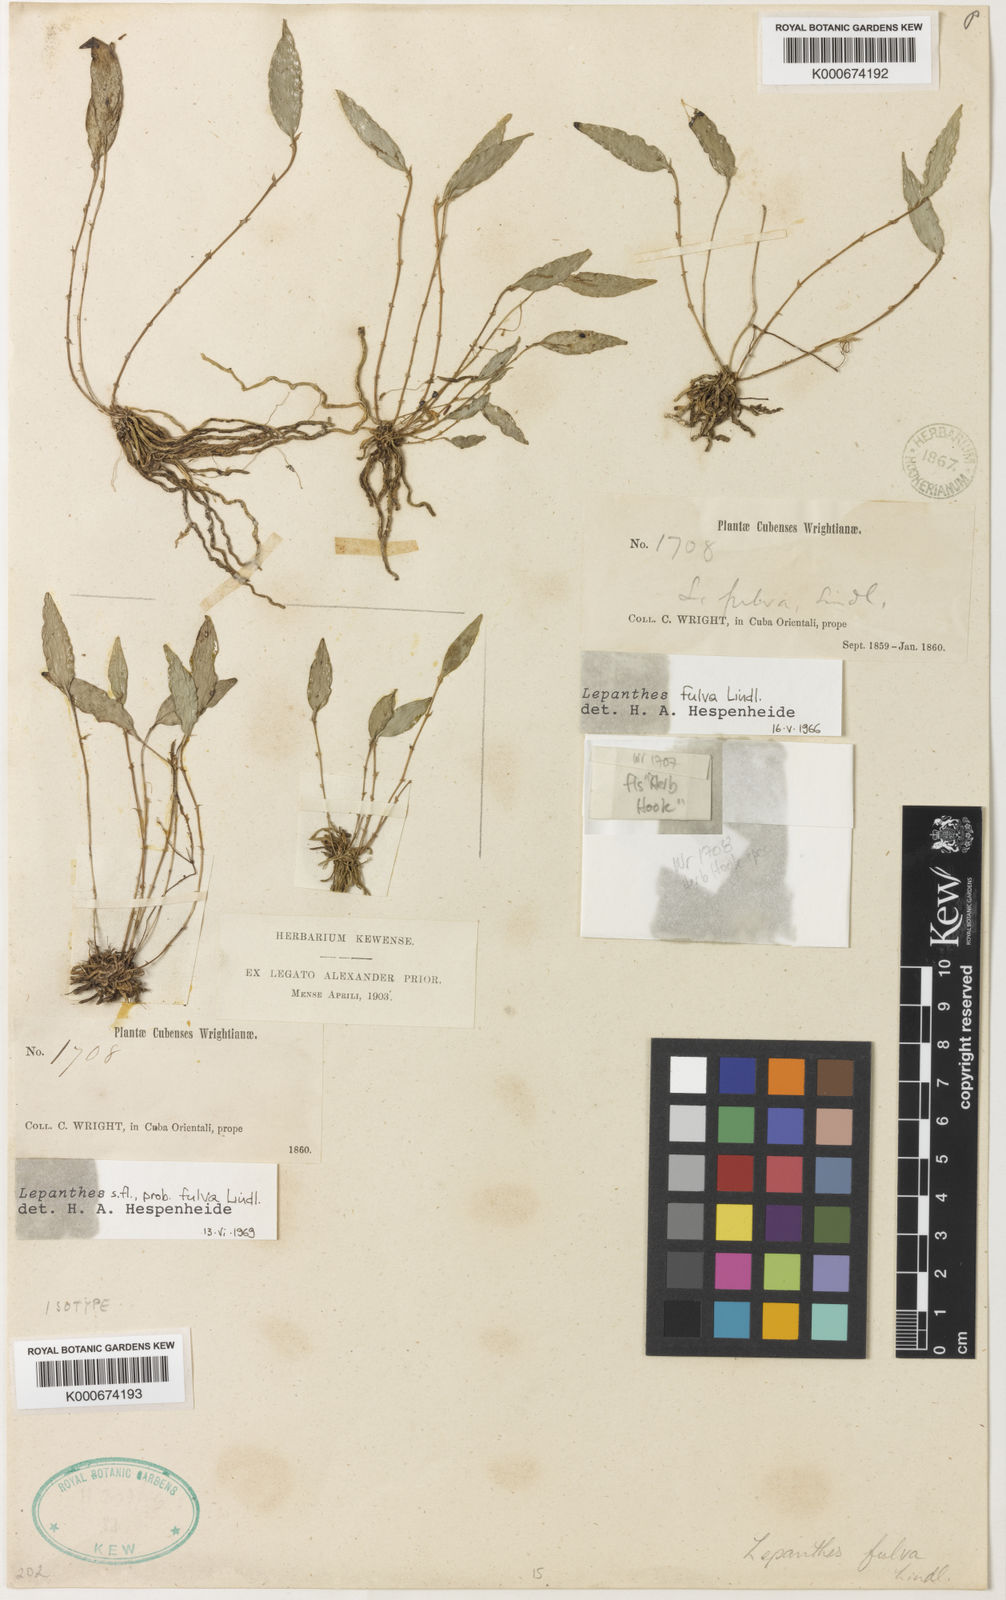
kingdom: Plantae
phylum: Tracheophyta
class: Liliopsida
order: Asparagales
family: Orchidaceae
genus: Lepanthes
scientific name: Lepanthes fulva
